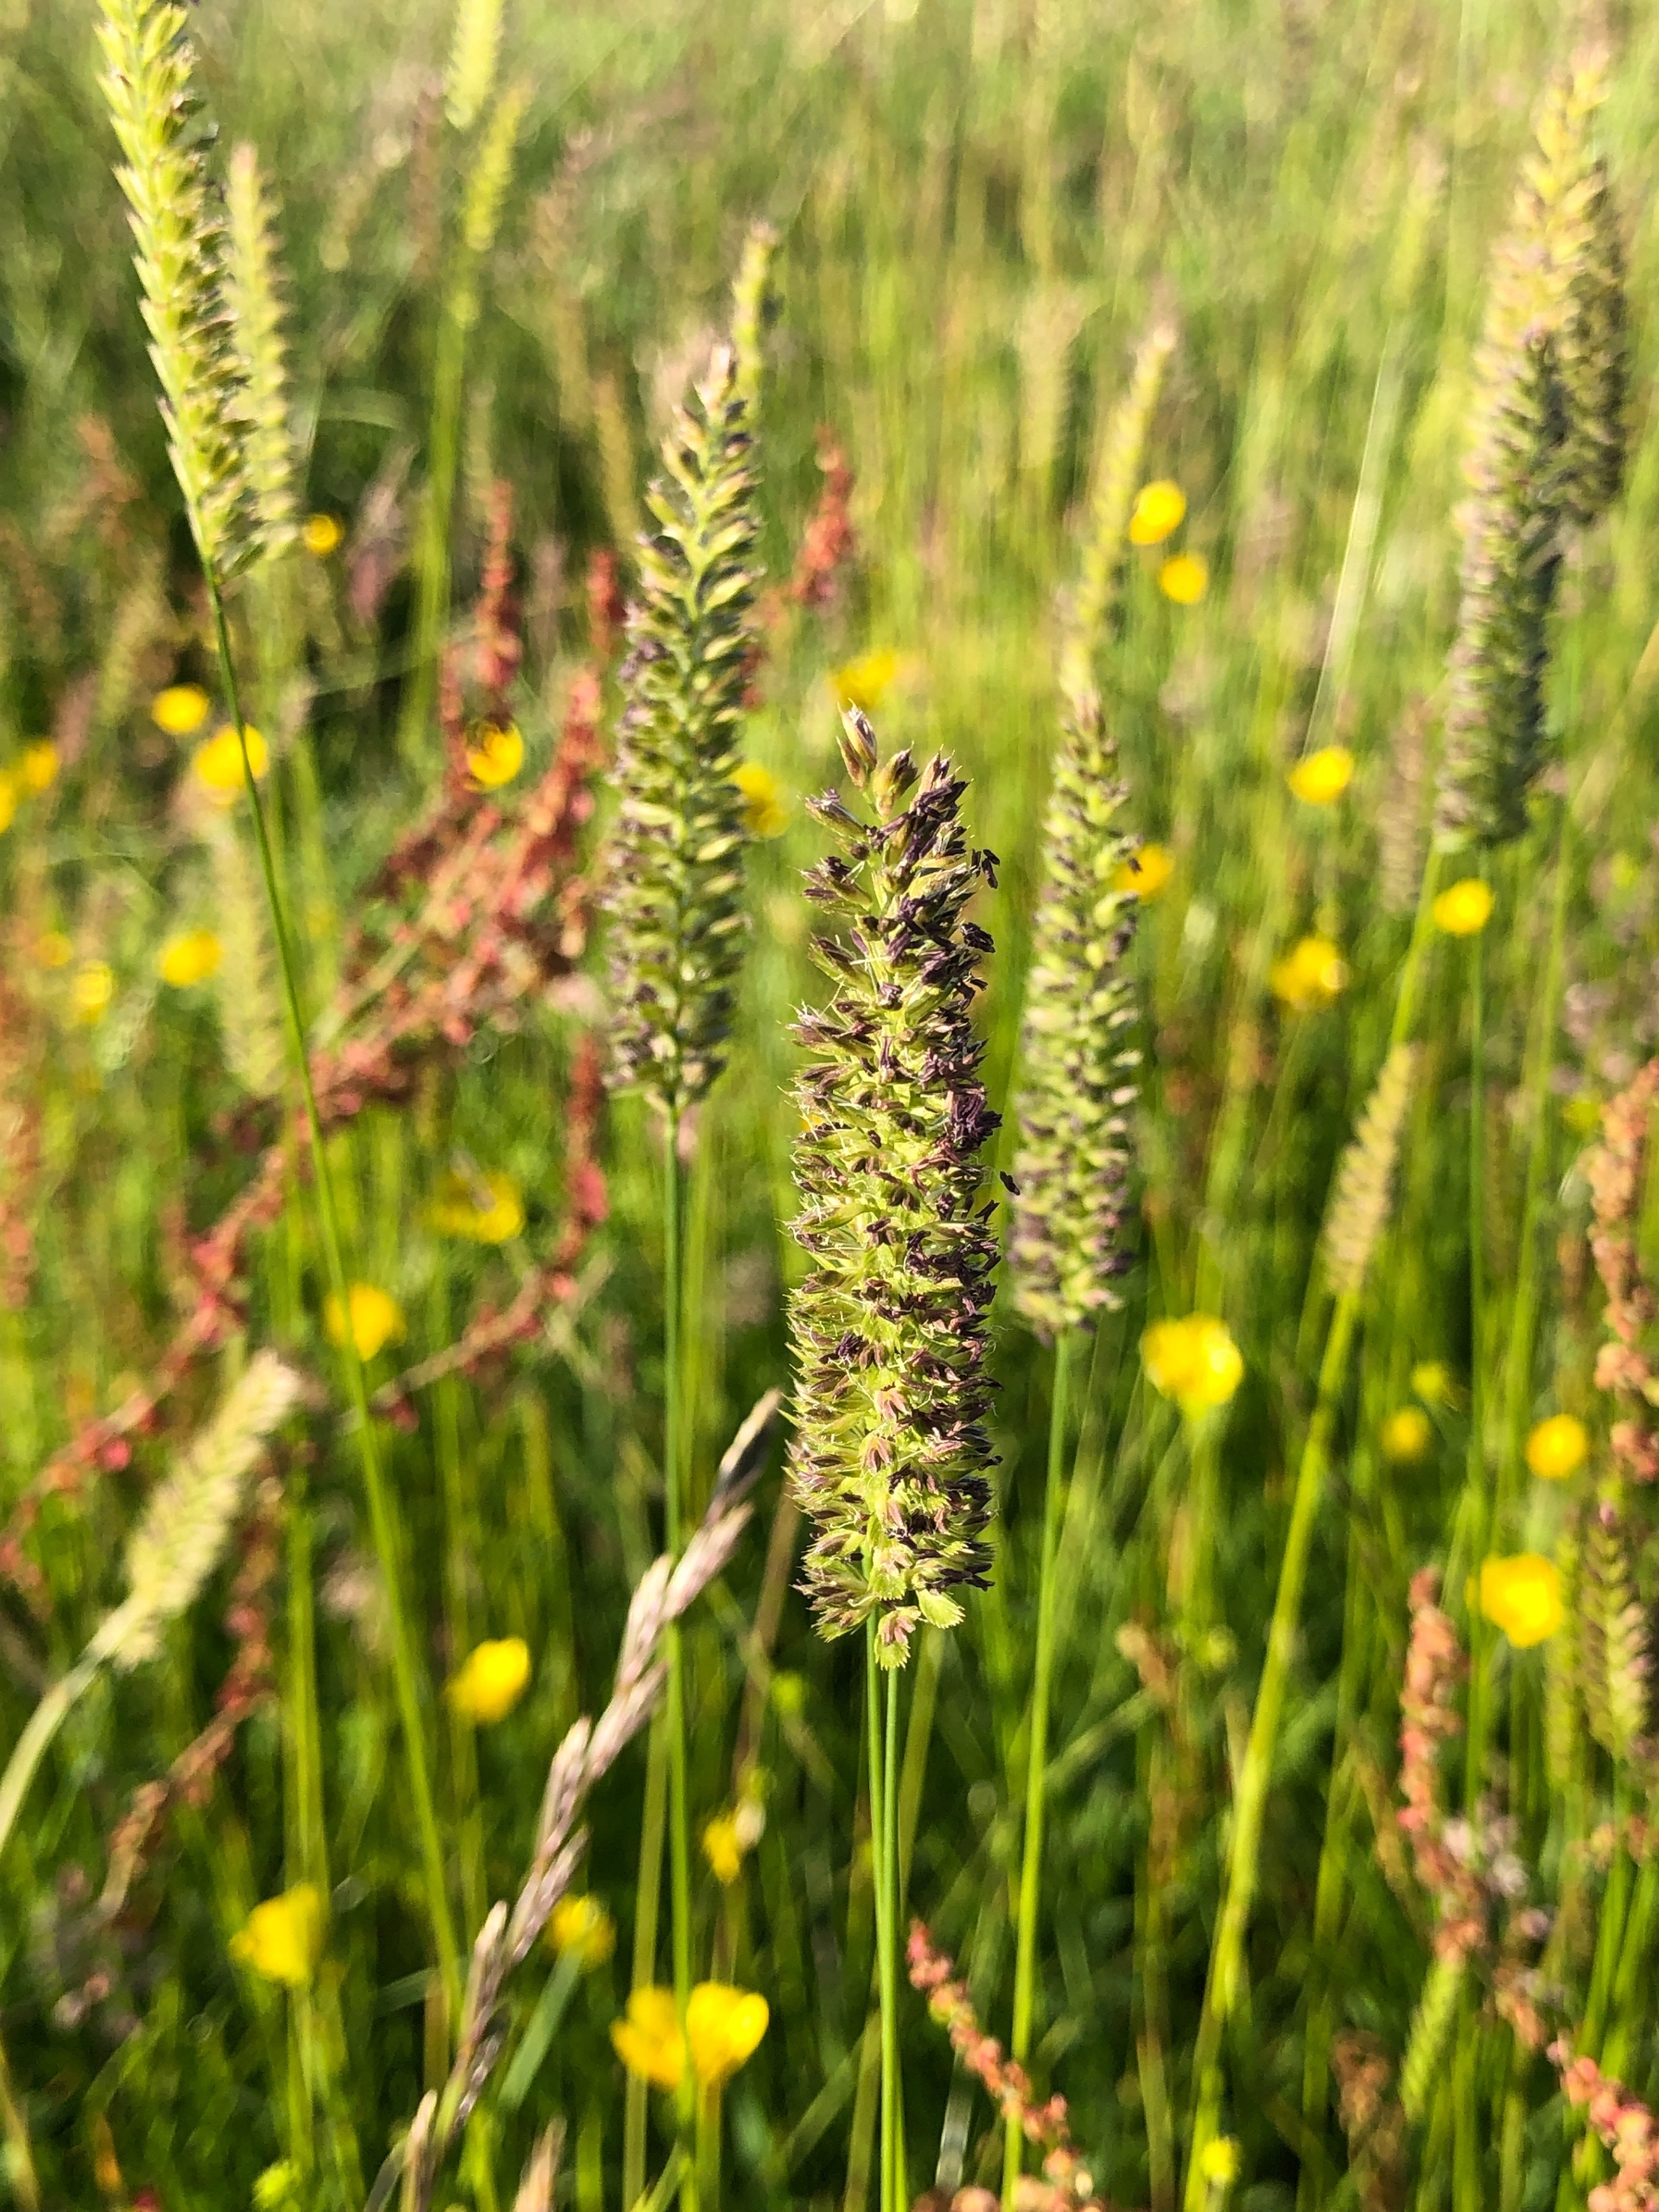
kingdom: Plantae
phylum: Tracheophyta
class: Liliopsida
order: Poales
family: Poaceae
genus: Cynosurus
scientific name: Cynosurus cristatus
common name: Kamgræs
